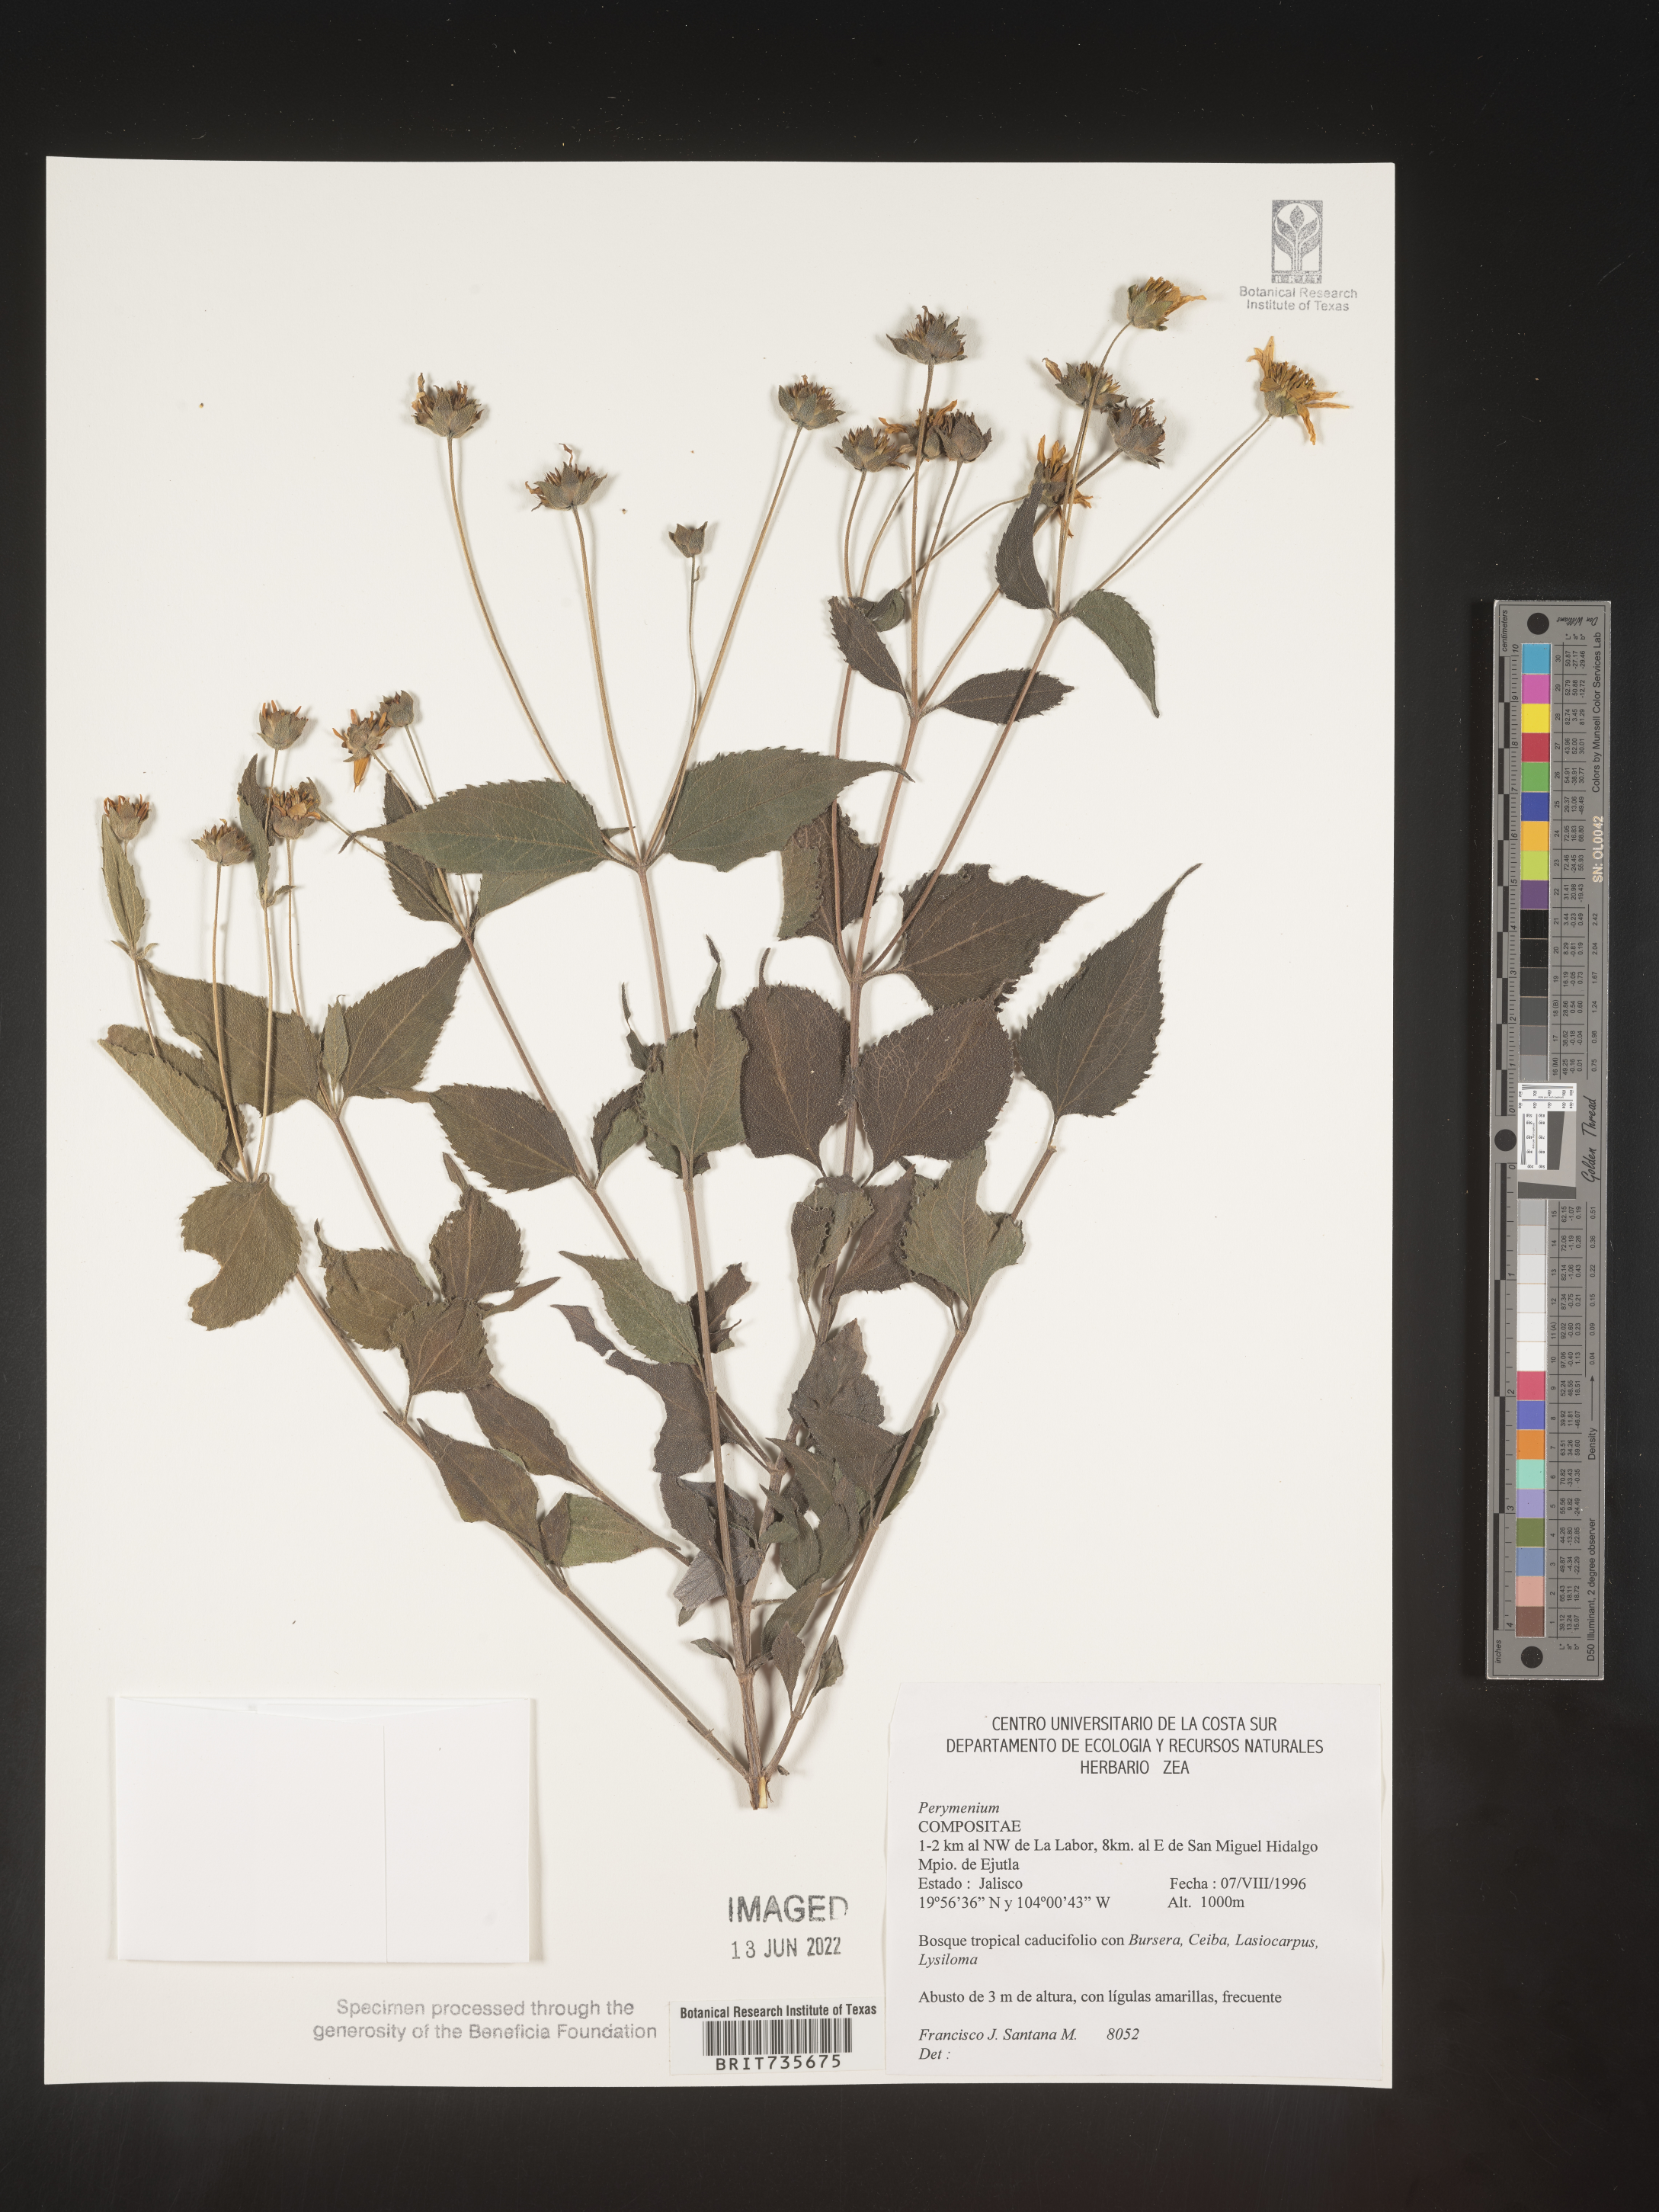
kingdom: Plantae
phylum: Tracheophyta
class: Magnoliopsida
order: Asterales
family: Asteraceae
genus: Perymenium
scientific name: Perymenium
